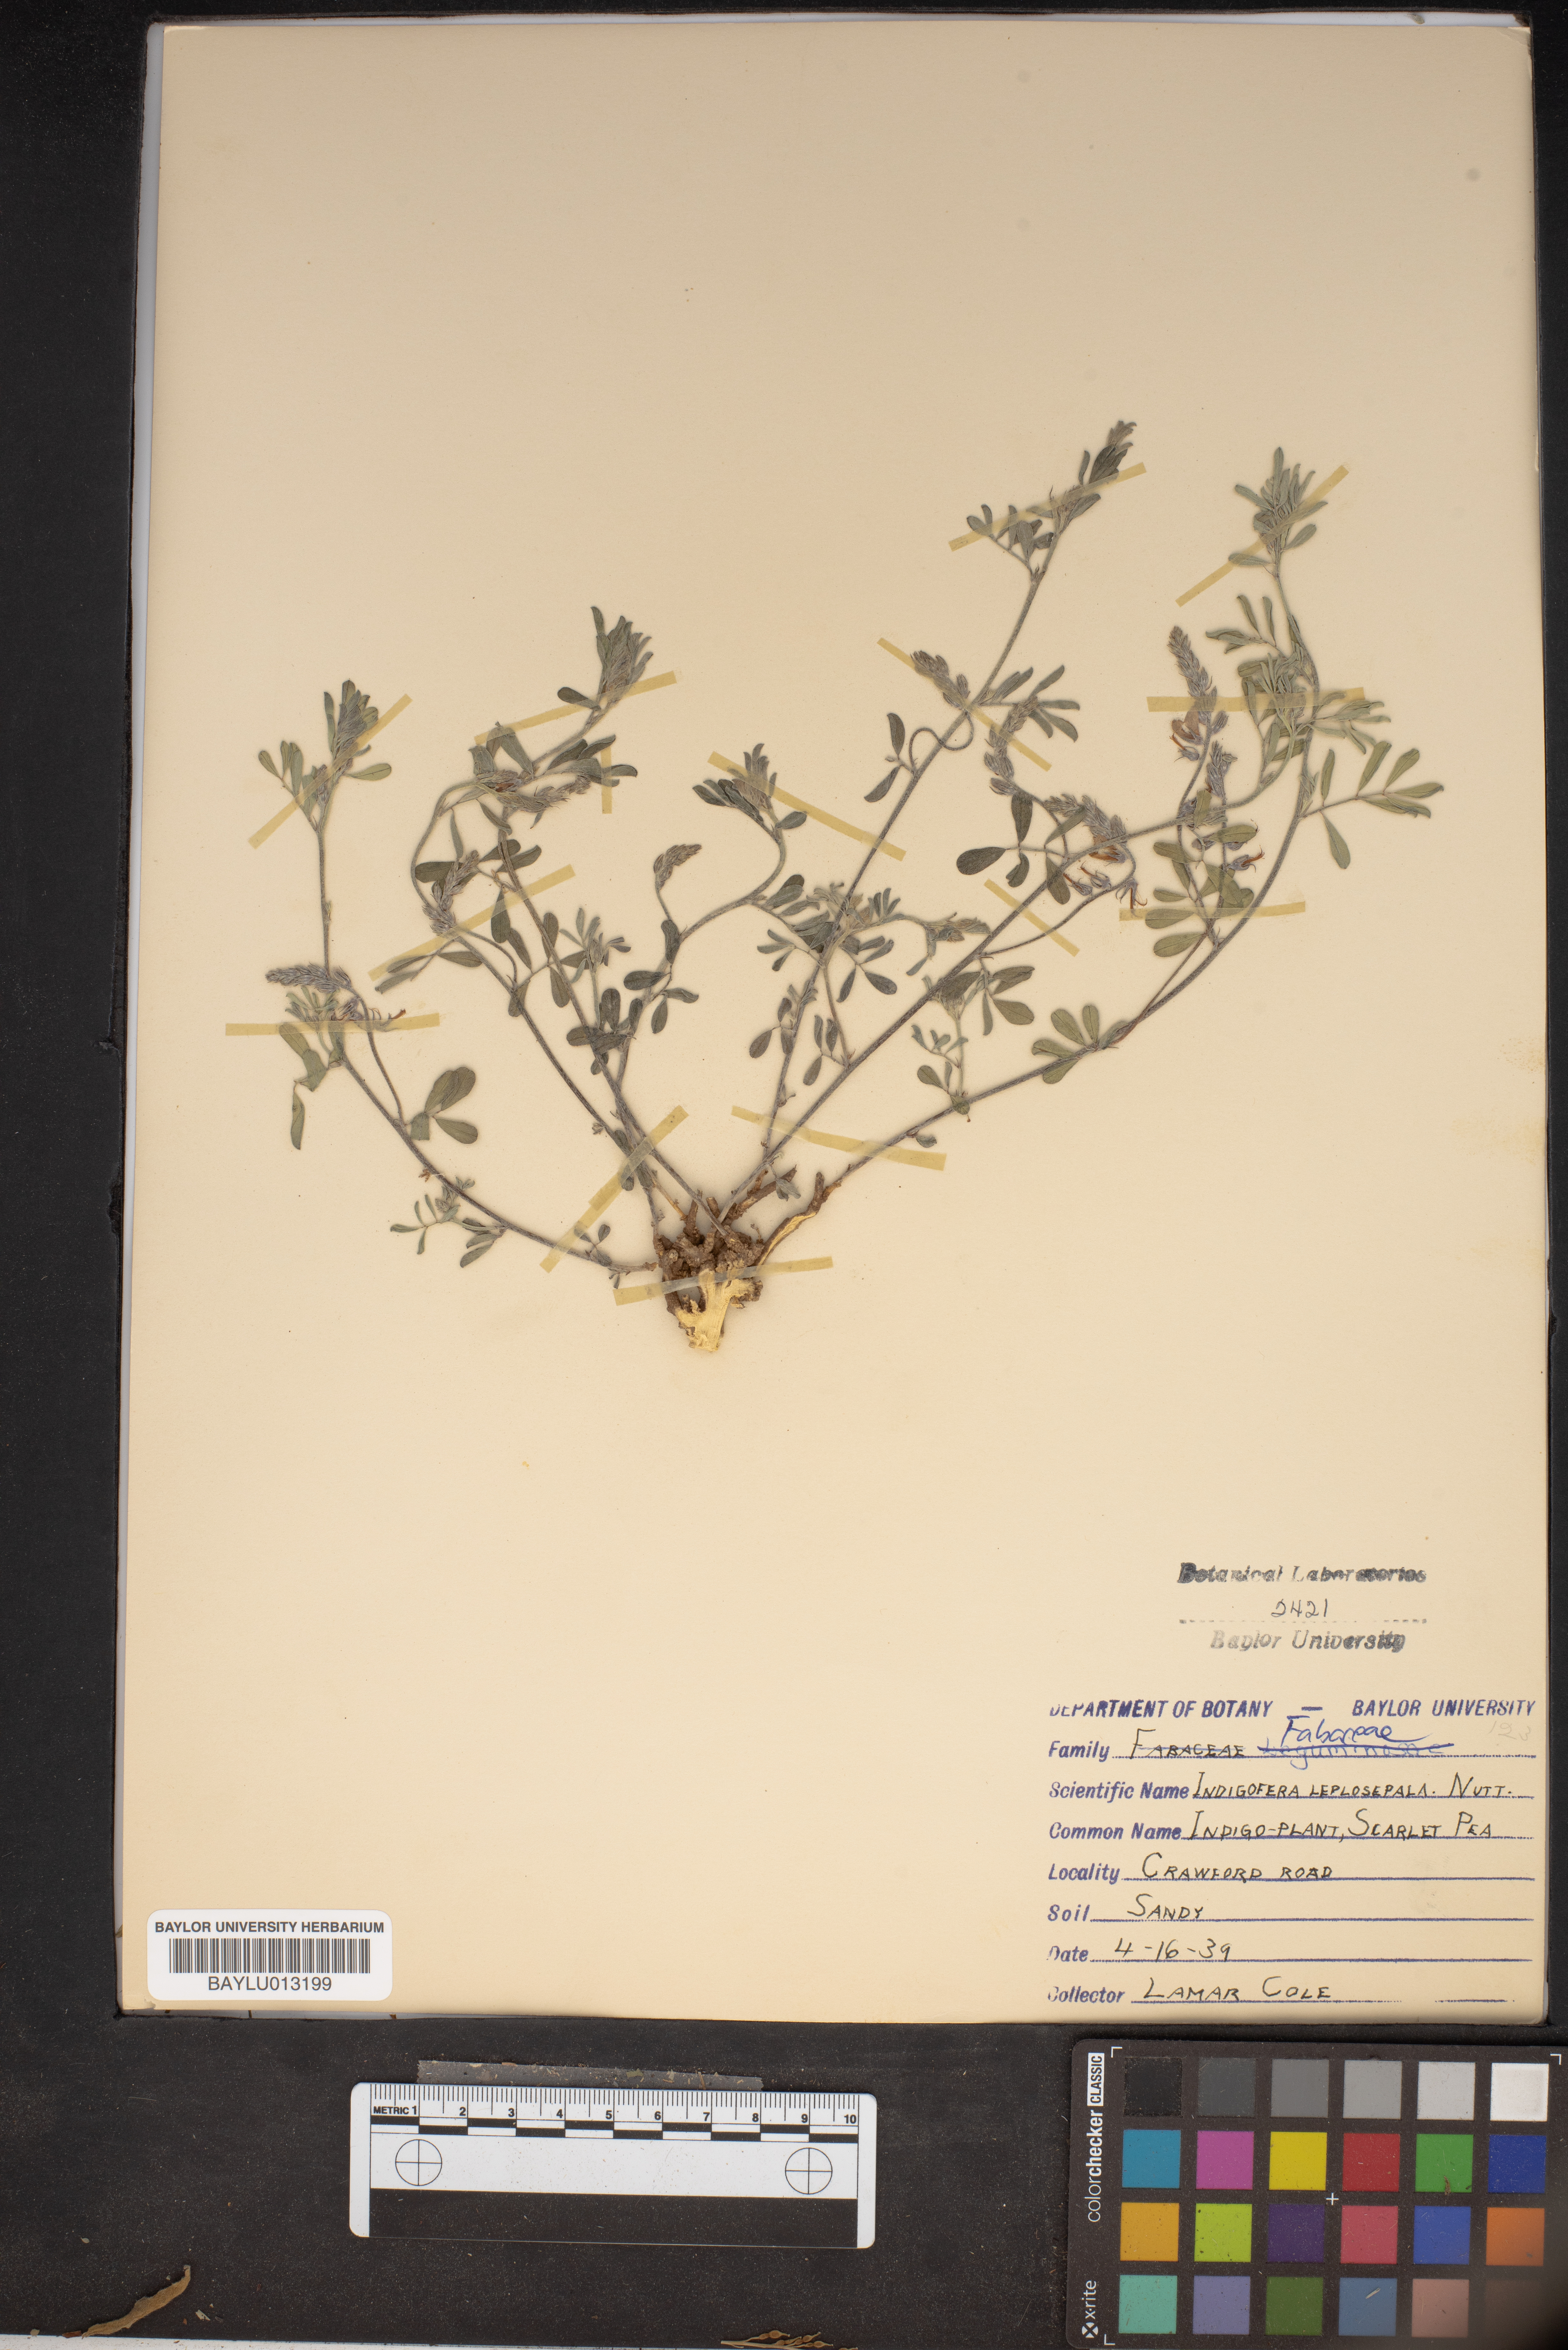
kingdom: Plantae
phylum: Tracheophyta
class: Magnoliopsida
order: Fabales
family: Fabaceae
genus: Indigofera
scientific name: Indigofera argutidens
